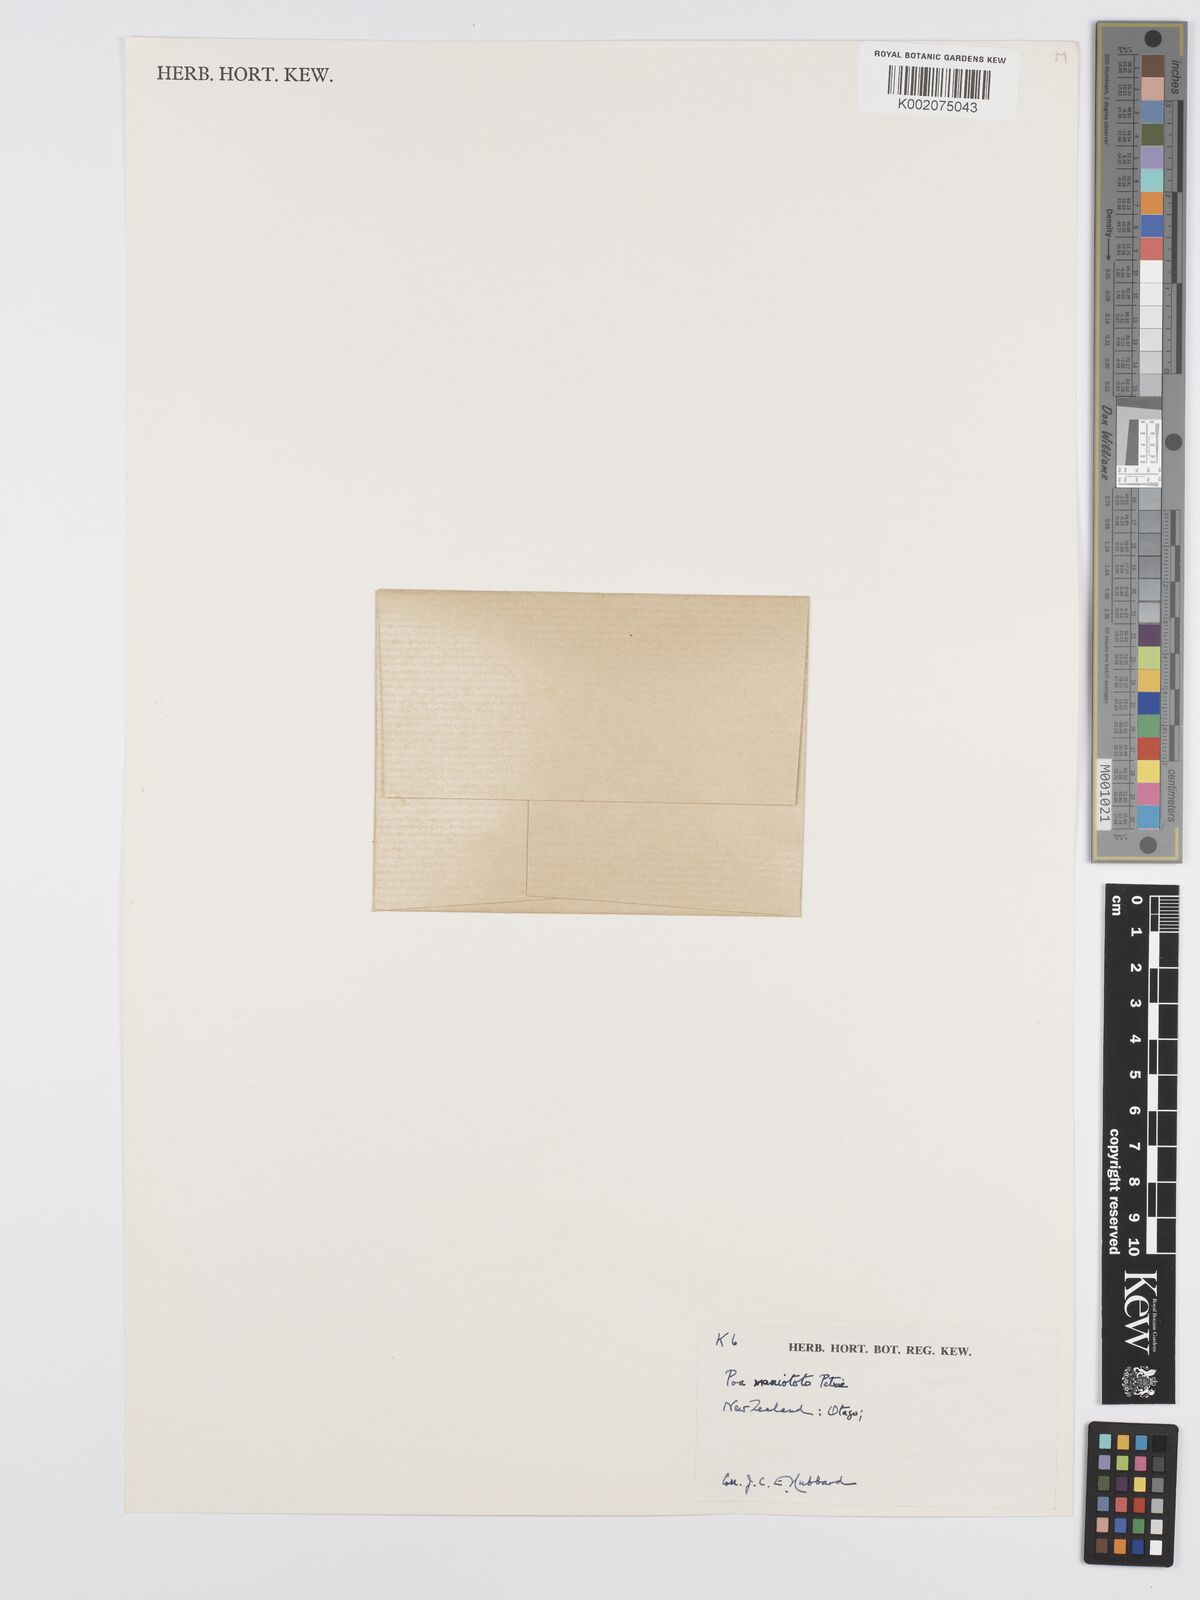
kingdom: Plantae
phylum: Tracheophyta
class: Liliopsida
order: Poales
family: Poaceae
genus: Poa
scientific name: Poa maniototo
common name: Desert poa
